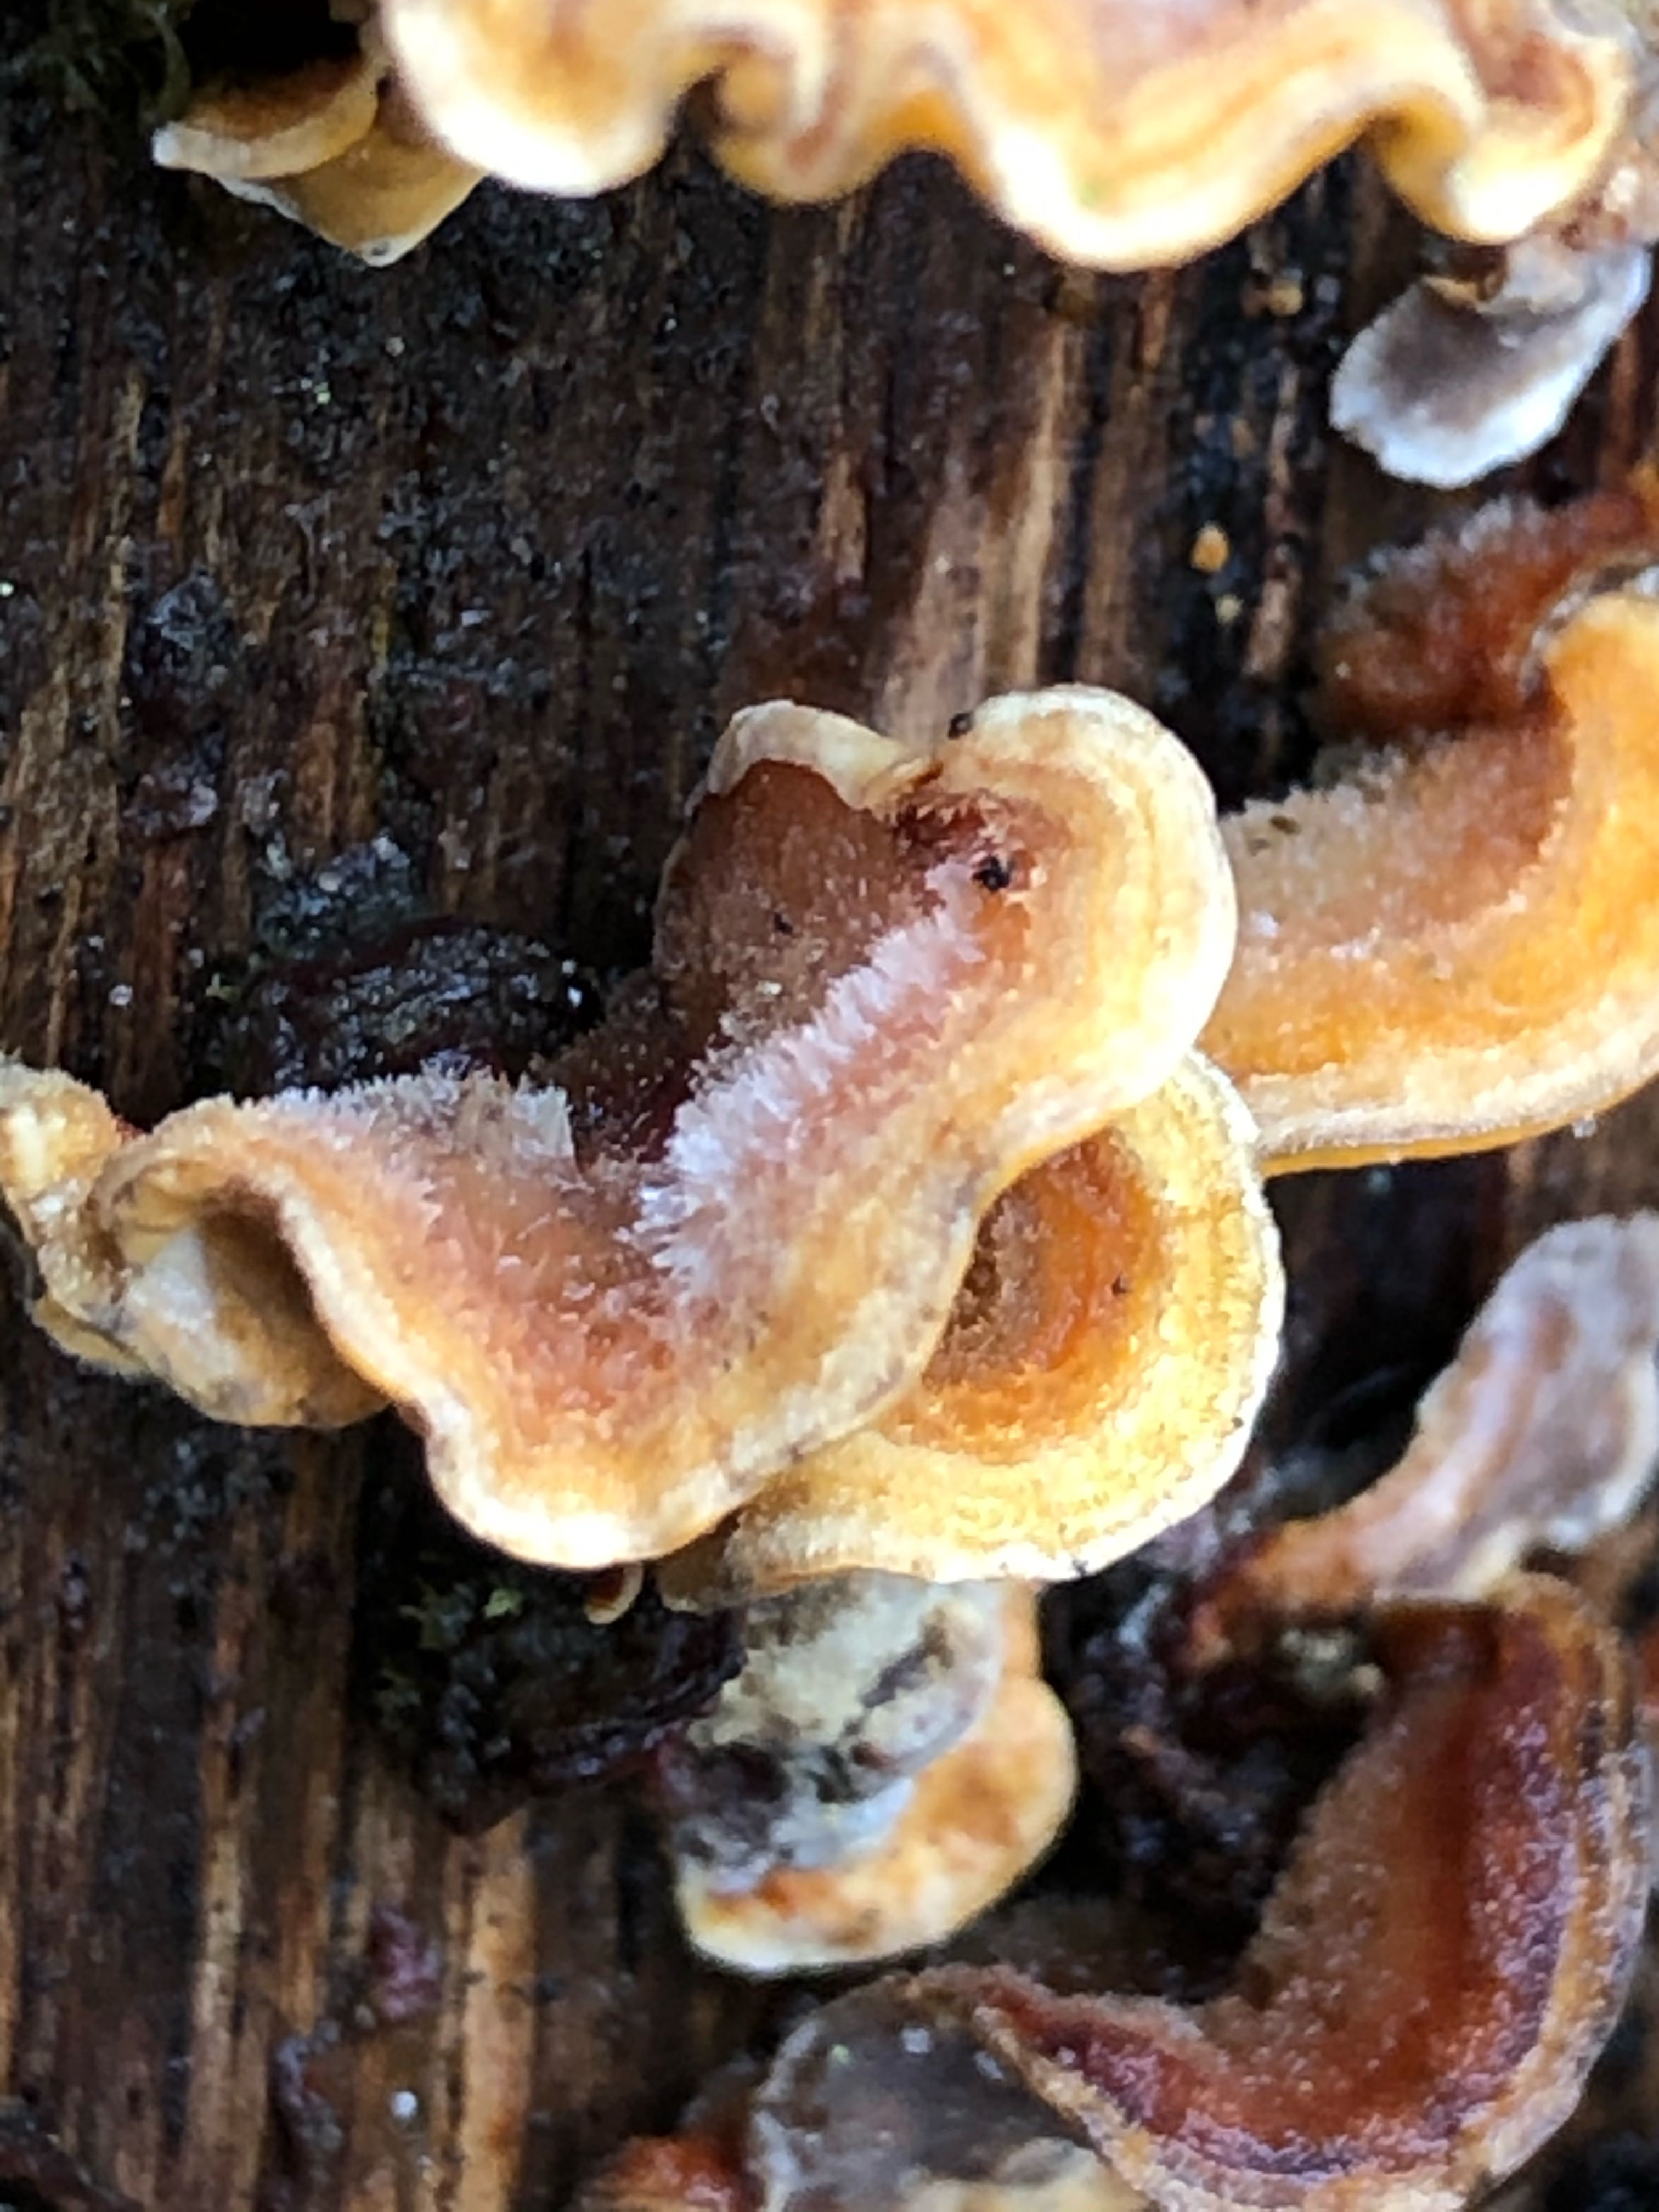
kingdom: Fungi
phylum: Basidiomycota
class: Agaricomycetes
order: Russulales
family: Stereaceae
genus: Stereum
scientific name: Stereum hirsutum
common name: håret lædersvamp
